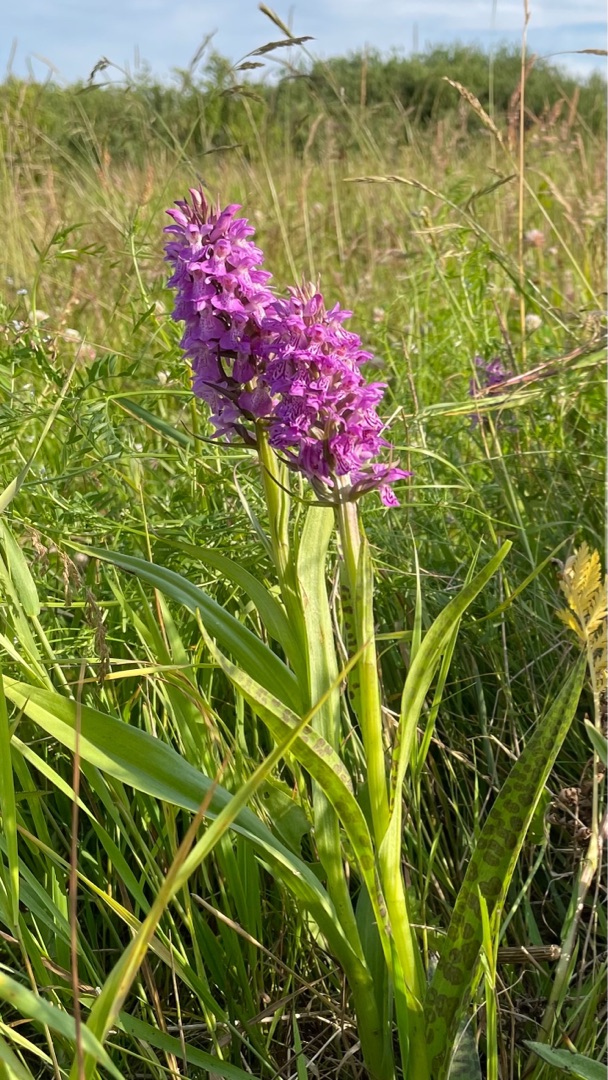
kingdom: Plantae
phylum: Tracheophyta
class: Liliopsida
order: Asparagales
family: Orchidaceae
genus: Dactylorhiza
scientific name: Dactylorhiza majalis
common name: Ringplettet gøgeurt
